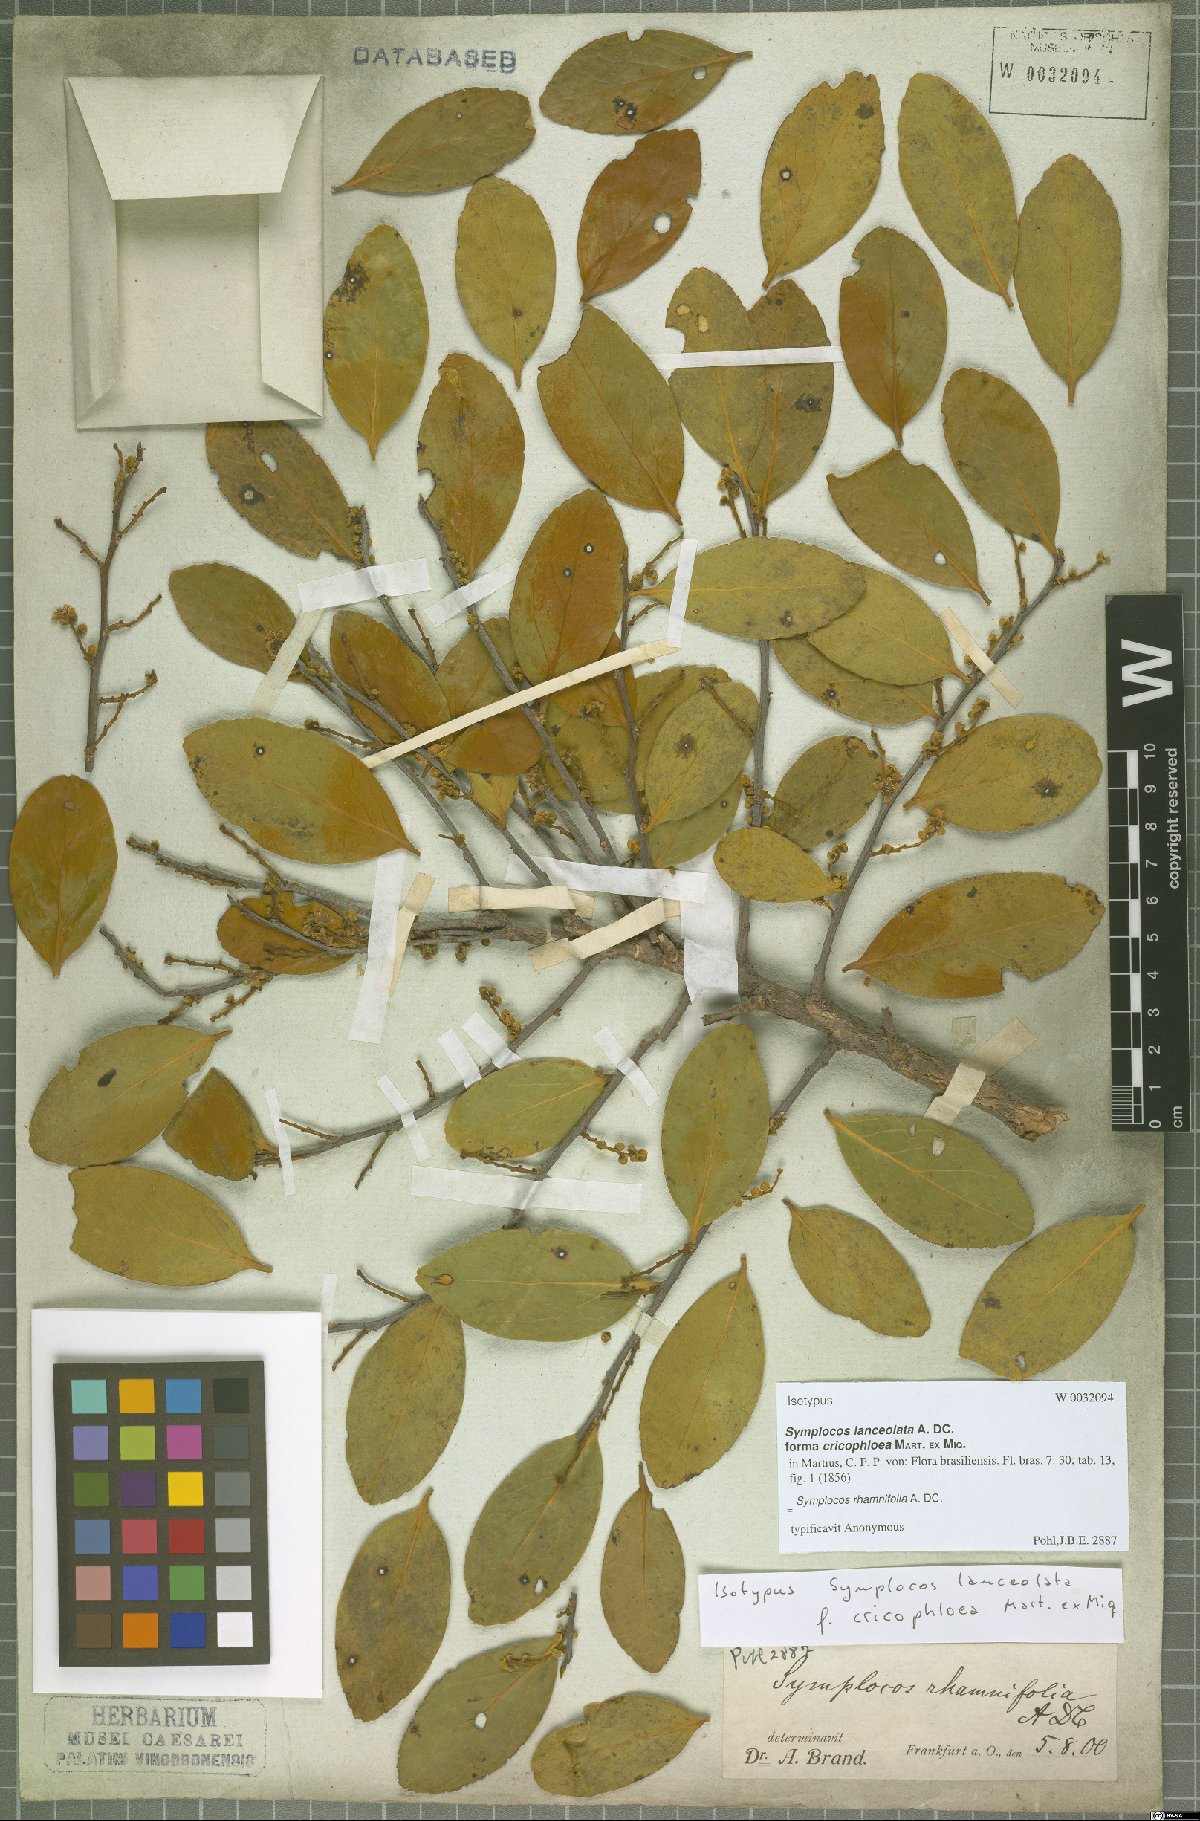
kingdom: Plantae
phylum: Tracheophyta
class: Magnoliopsida
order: Ericales
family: Symplocaceae
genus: Symplocos
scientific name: Symplocos rhamnifolia
